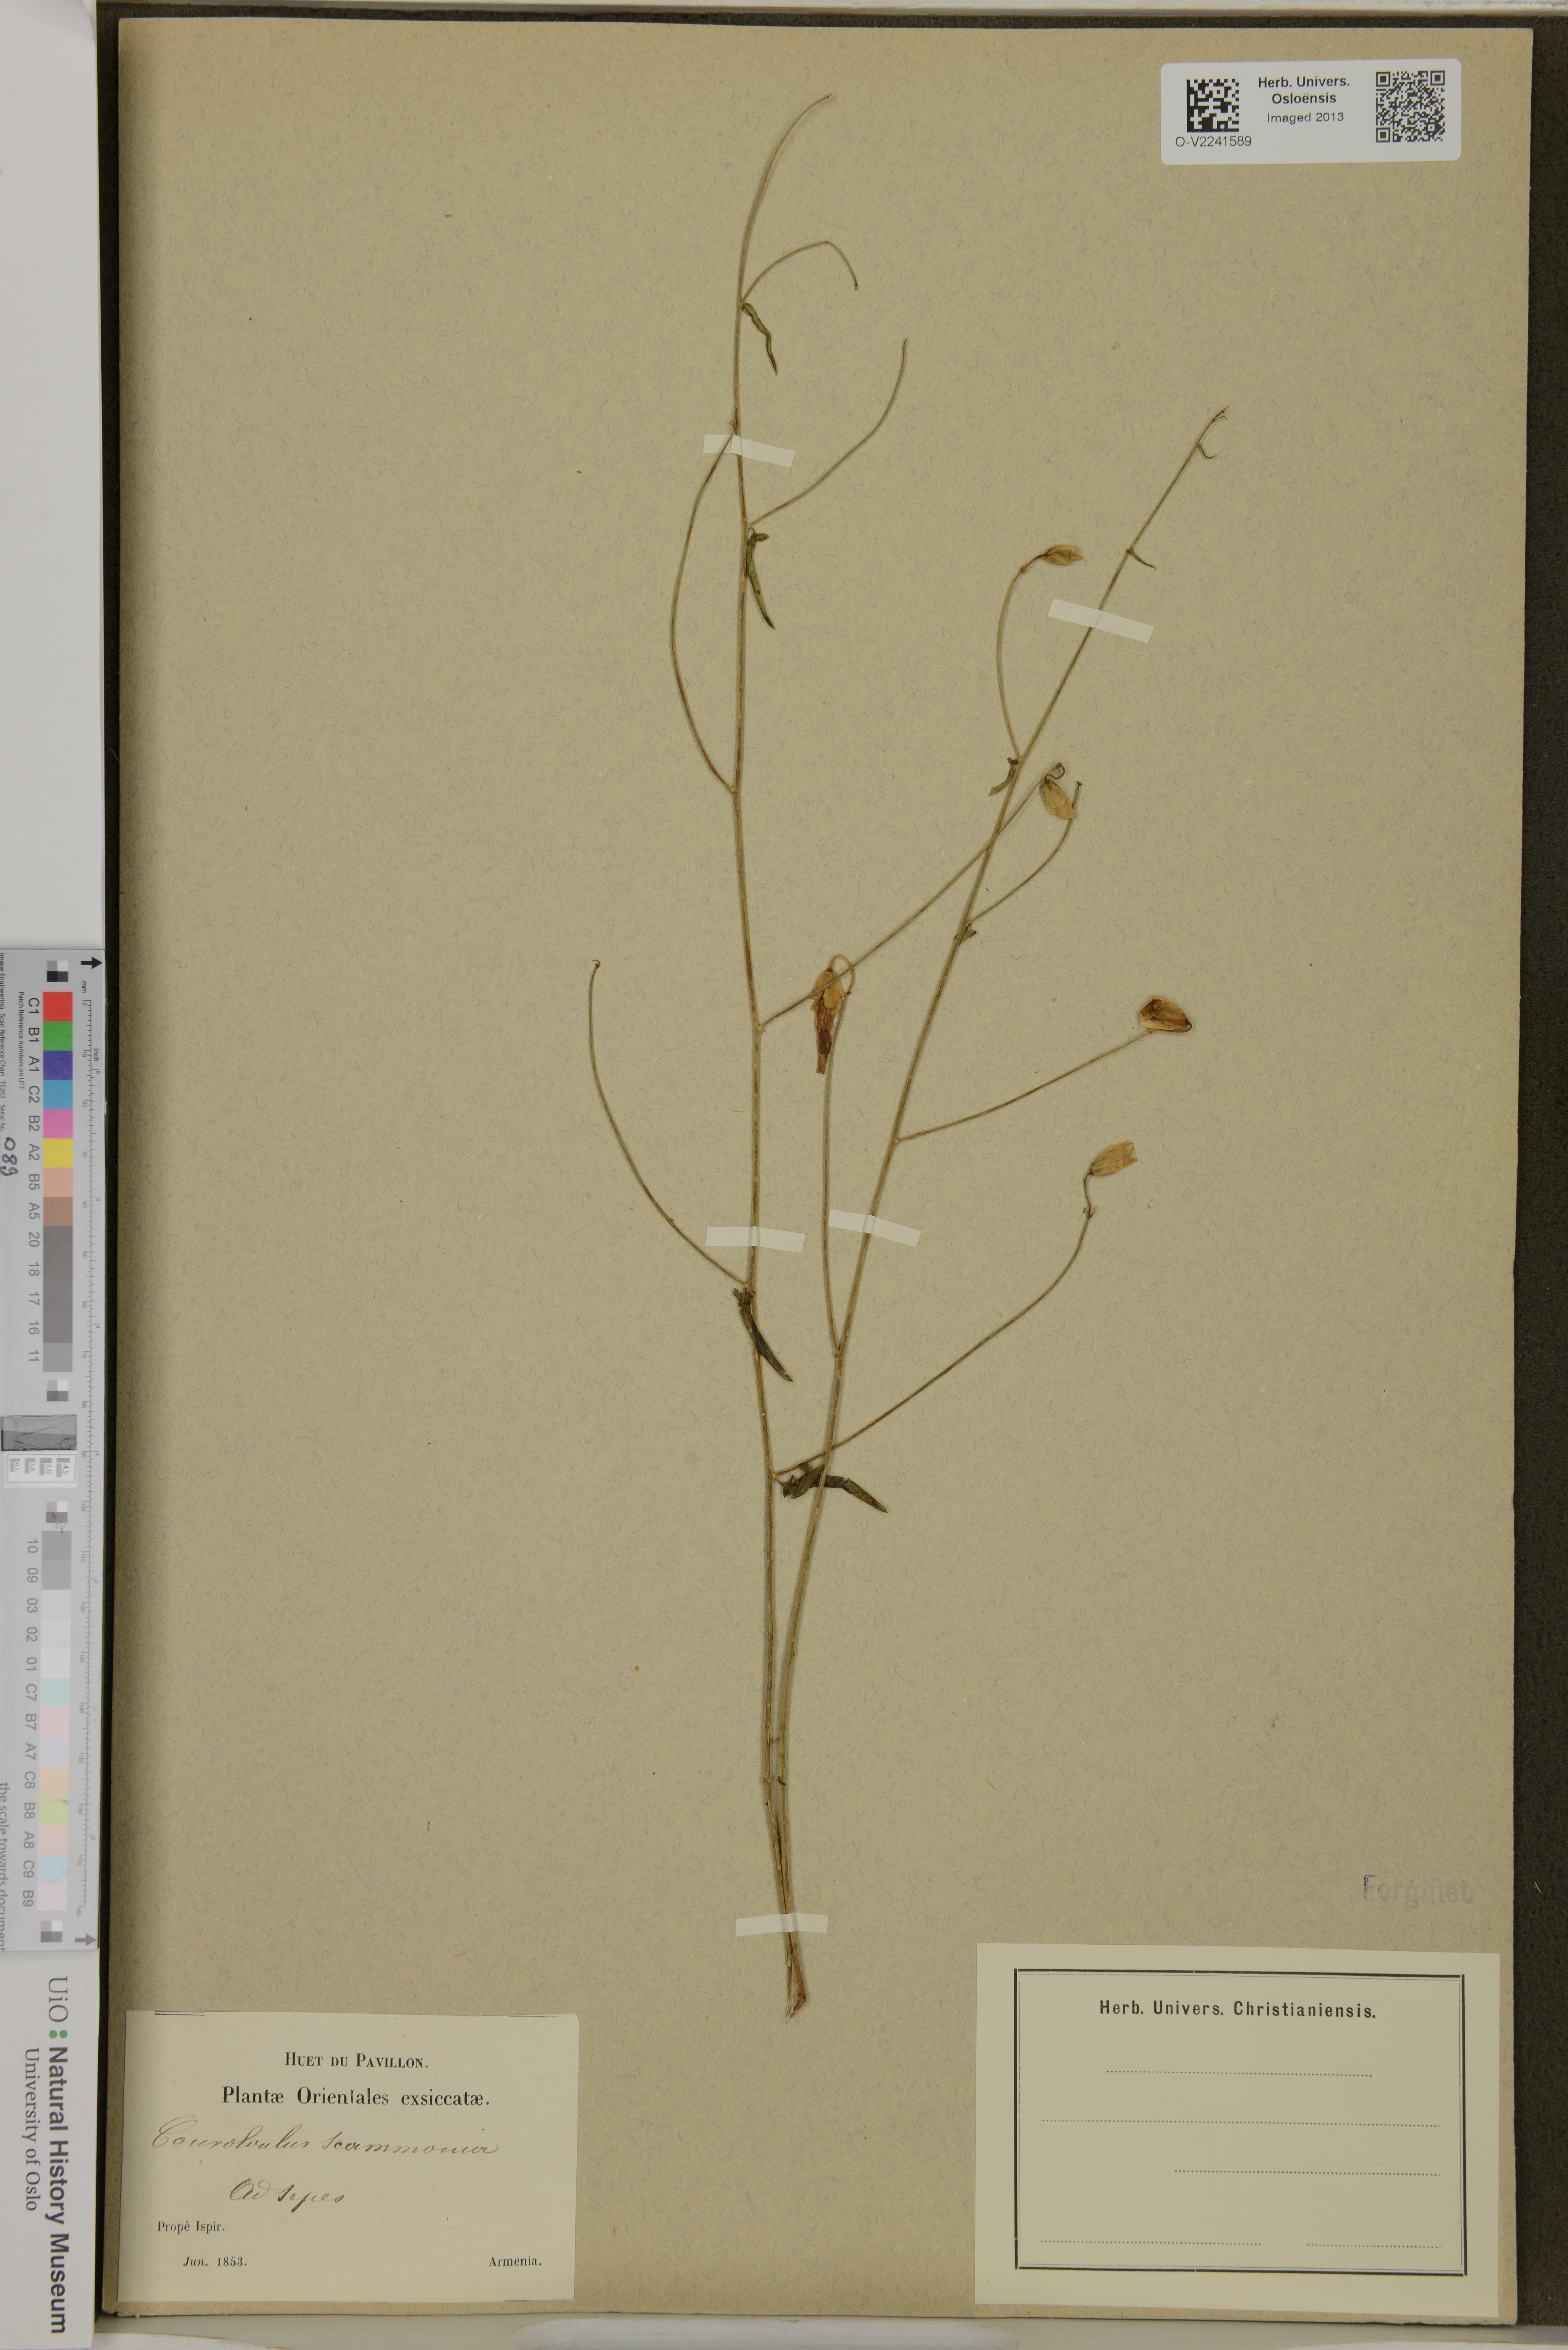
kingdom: Plantae
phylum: Tracheophyta
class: Magnoliopsida
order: Solanales
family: Convolvulaceae
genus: Convolvulus
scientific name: Convolvulus scammonia
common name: Scammony
